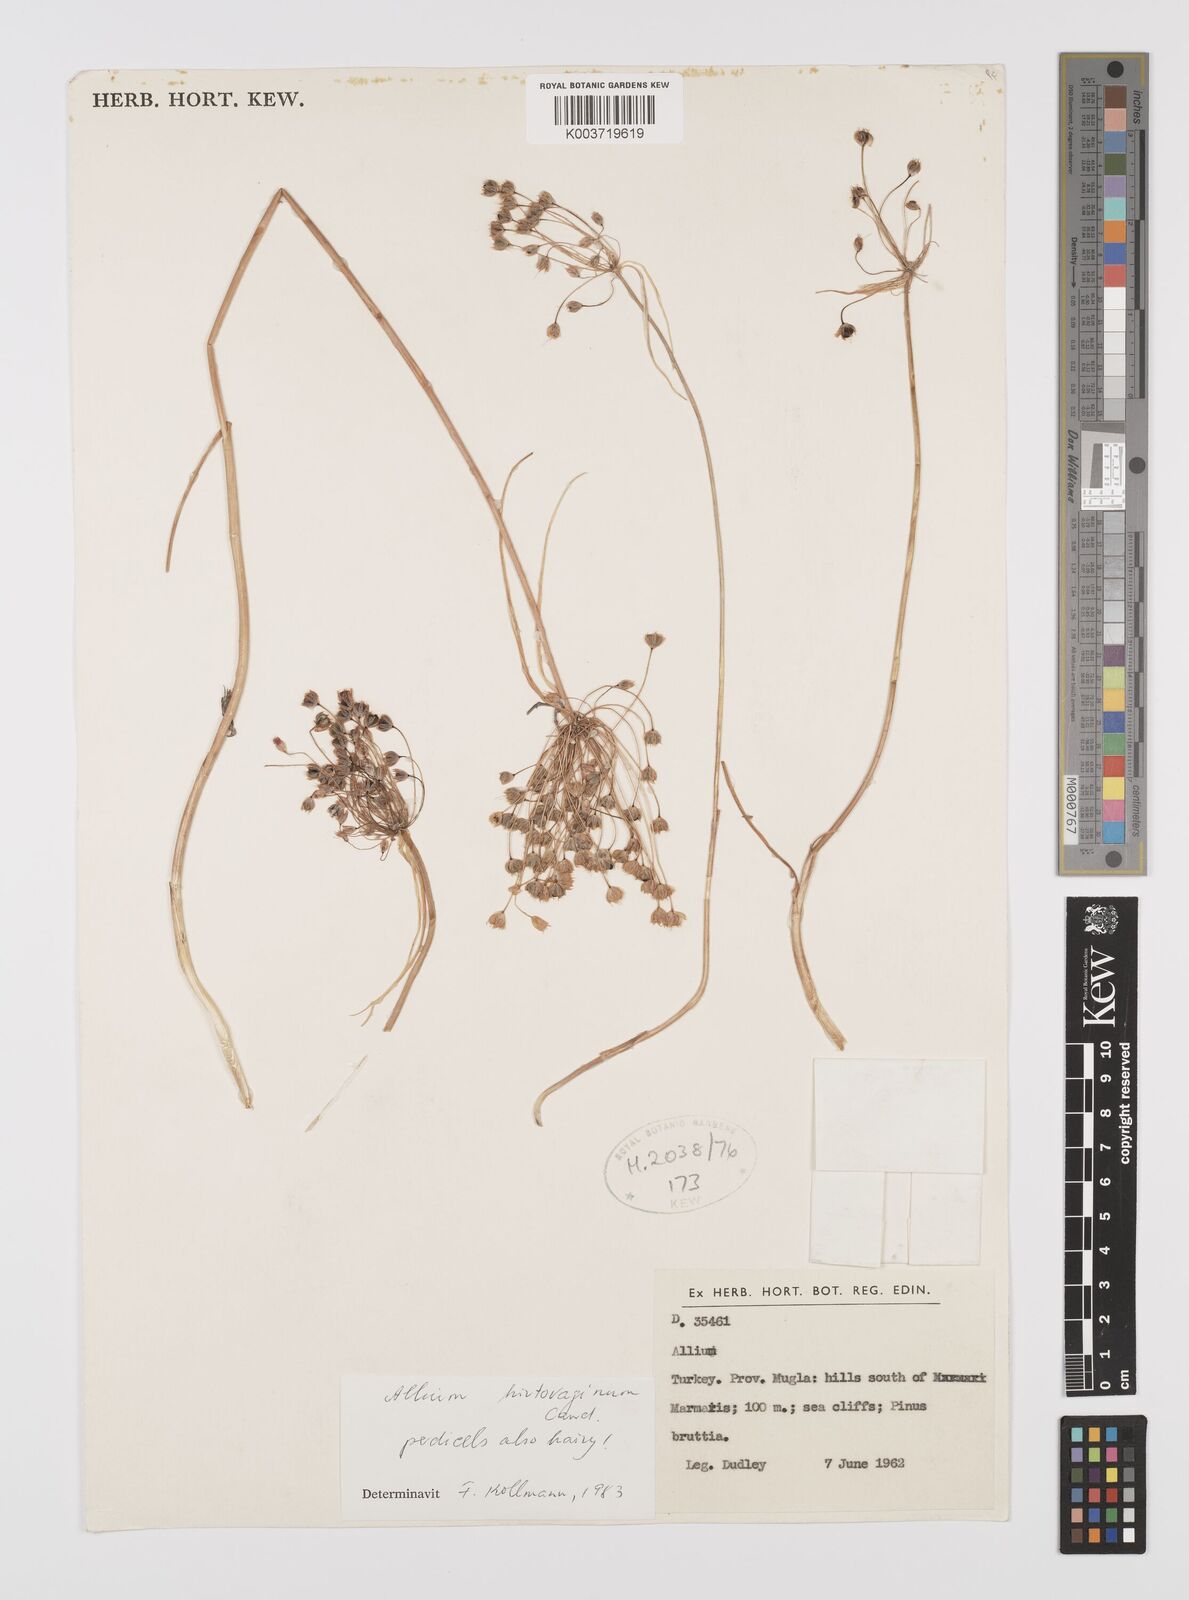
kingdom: Plantae
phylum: Tracheophyta
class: Liliopsida
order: Asparagales
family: Amaryllidaceae
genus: Allium
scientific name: Allium hirtovaginum
